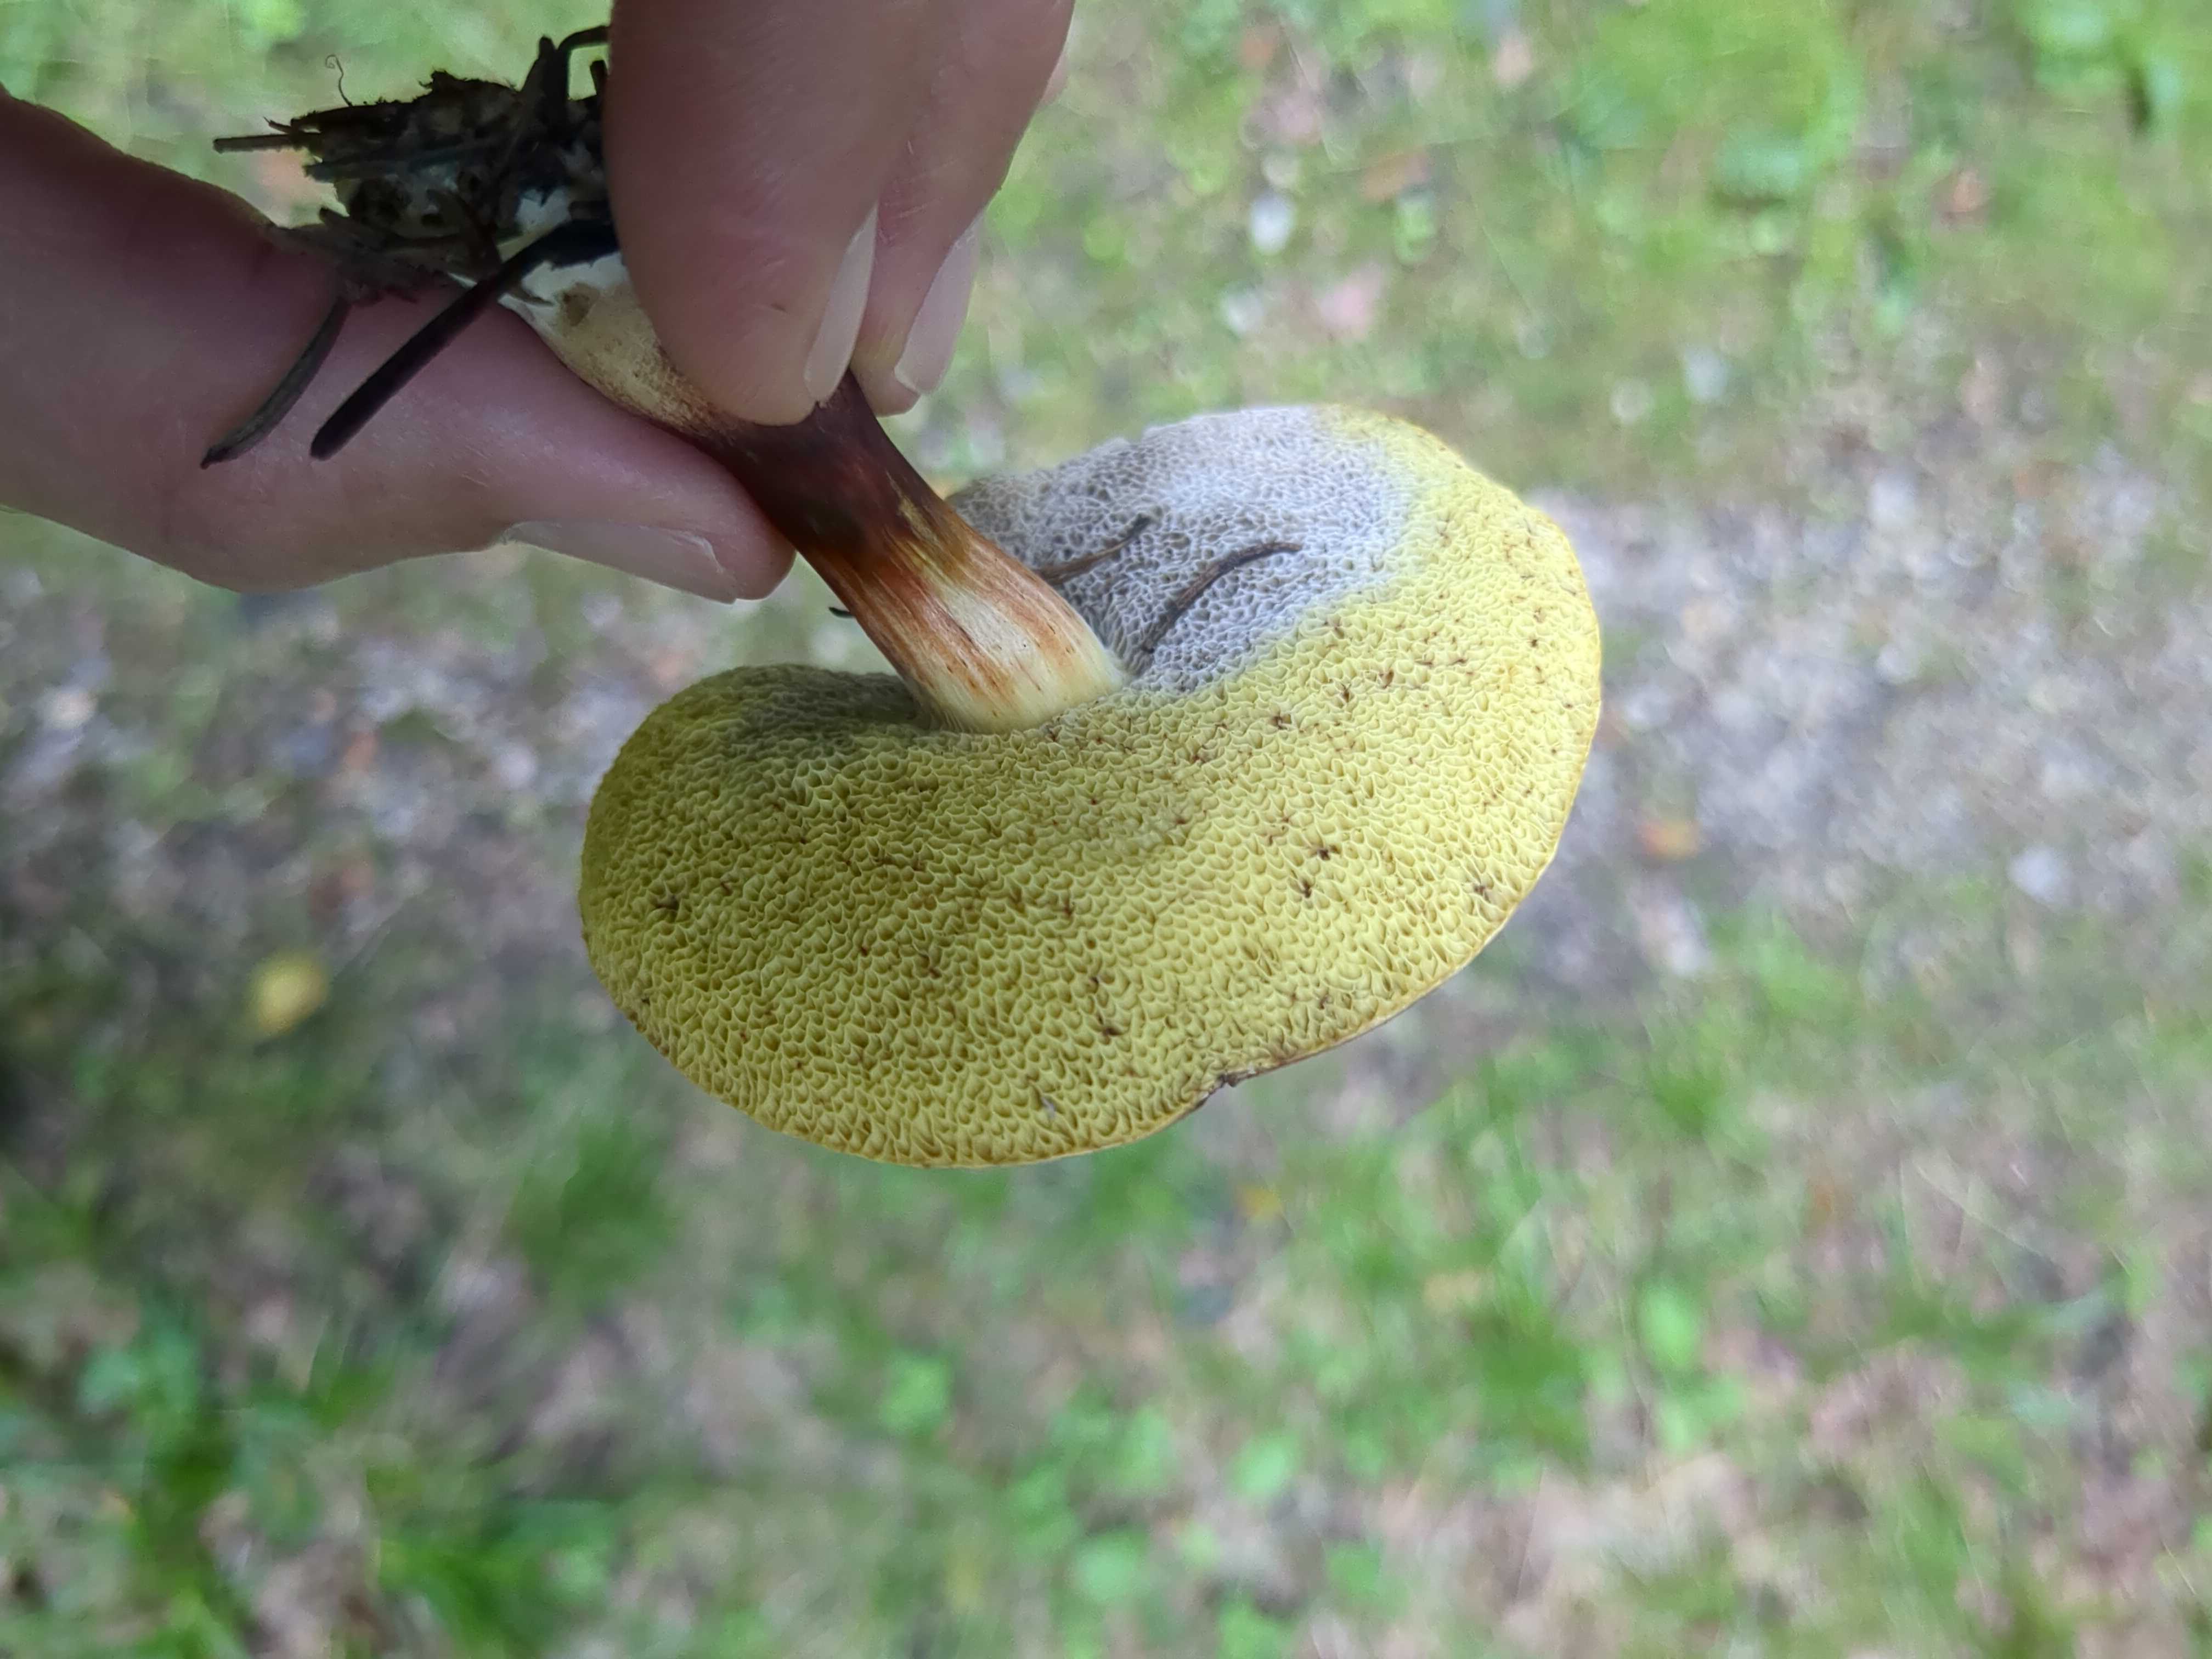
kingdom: Fungi
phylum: Basidiomycota
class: Agaricomycetes
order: Boletales
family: Boletaceae
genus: Xerocomellus
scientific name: Xerocomellus porosporus
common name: hvidsprukken rørhat
